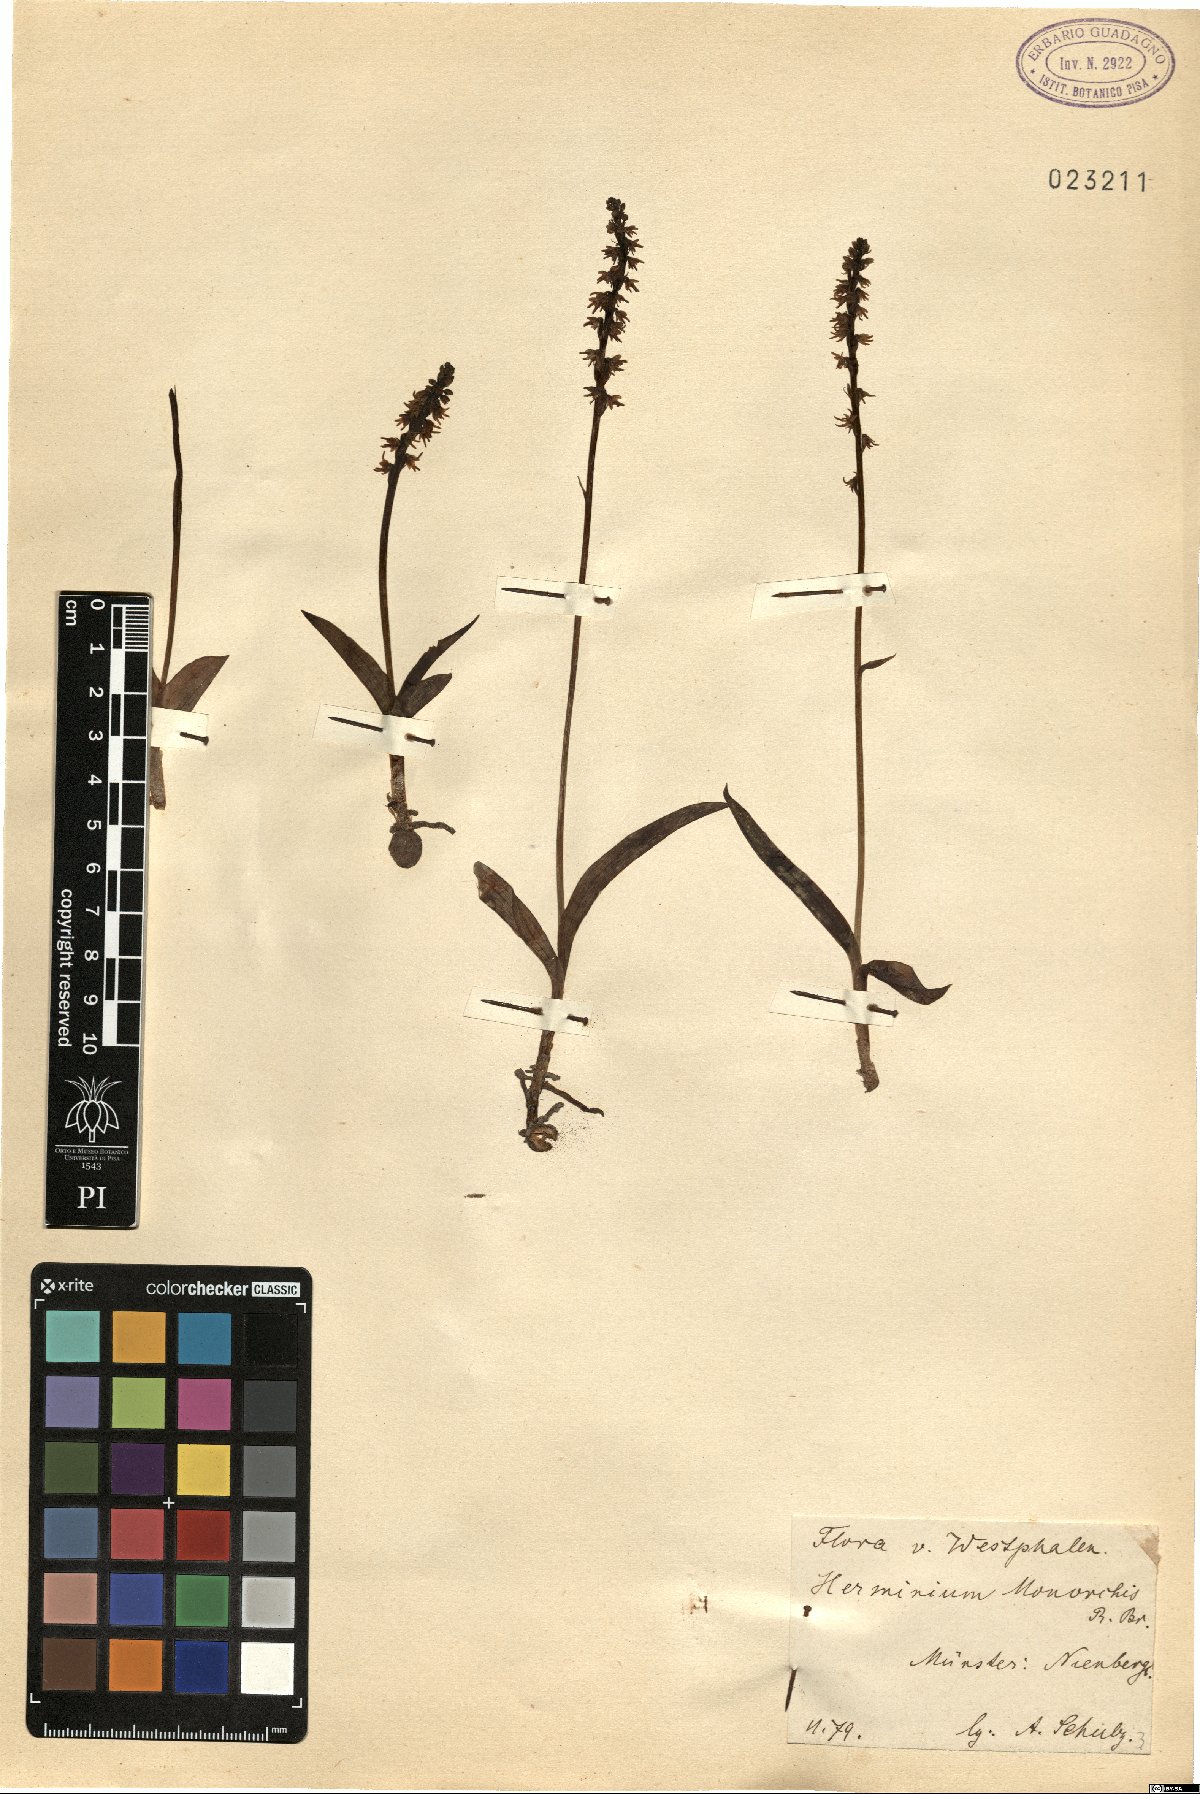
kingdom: Plantae
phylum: Tracheophyta
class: Liliopsida
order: Asparagales
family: Orchidaceae
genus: Herminium
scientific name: Herminium monorchis
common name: Musk orchid
